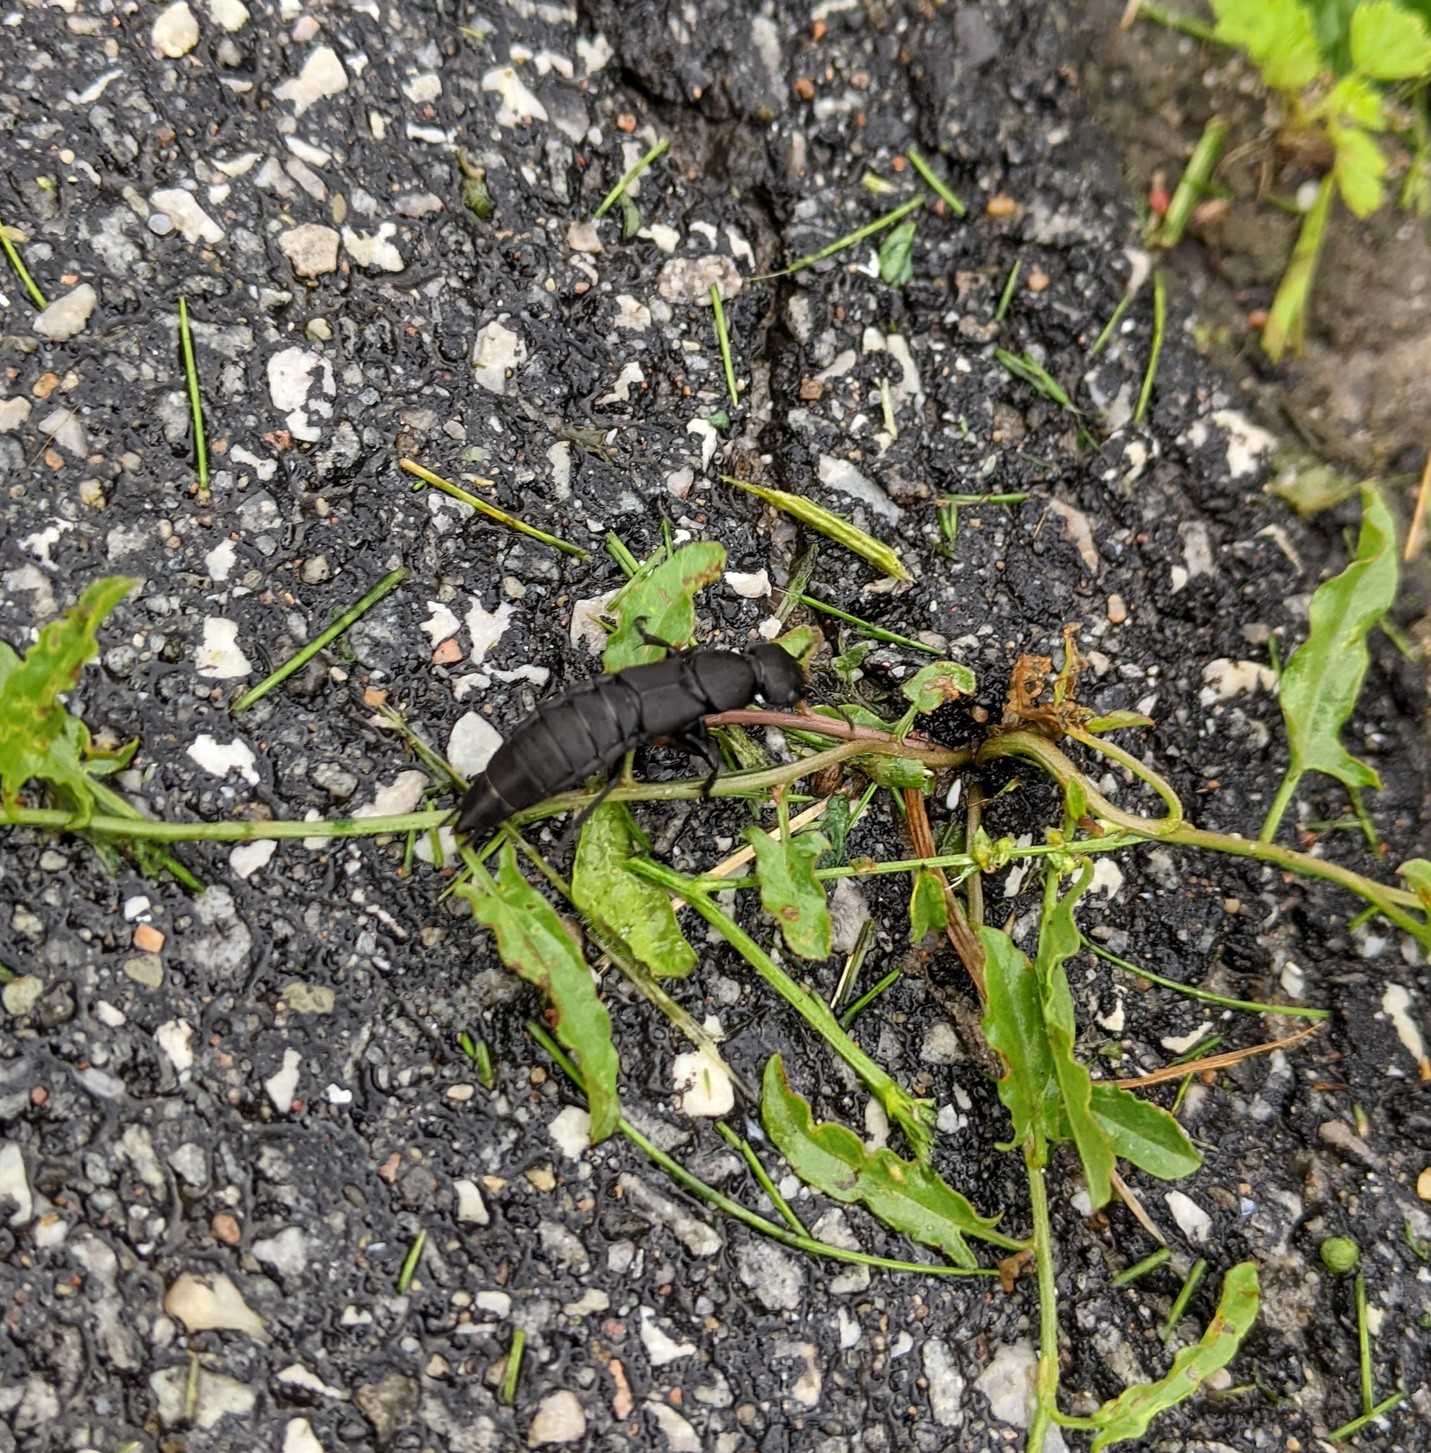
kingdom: Animalia
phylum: Arthropoda
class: Insecta
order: Coleoptera
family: Staphylinidae
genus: Ocypus
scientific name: Ocypus olens
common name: Stor rovbille
